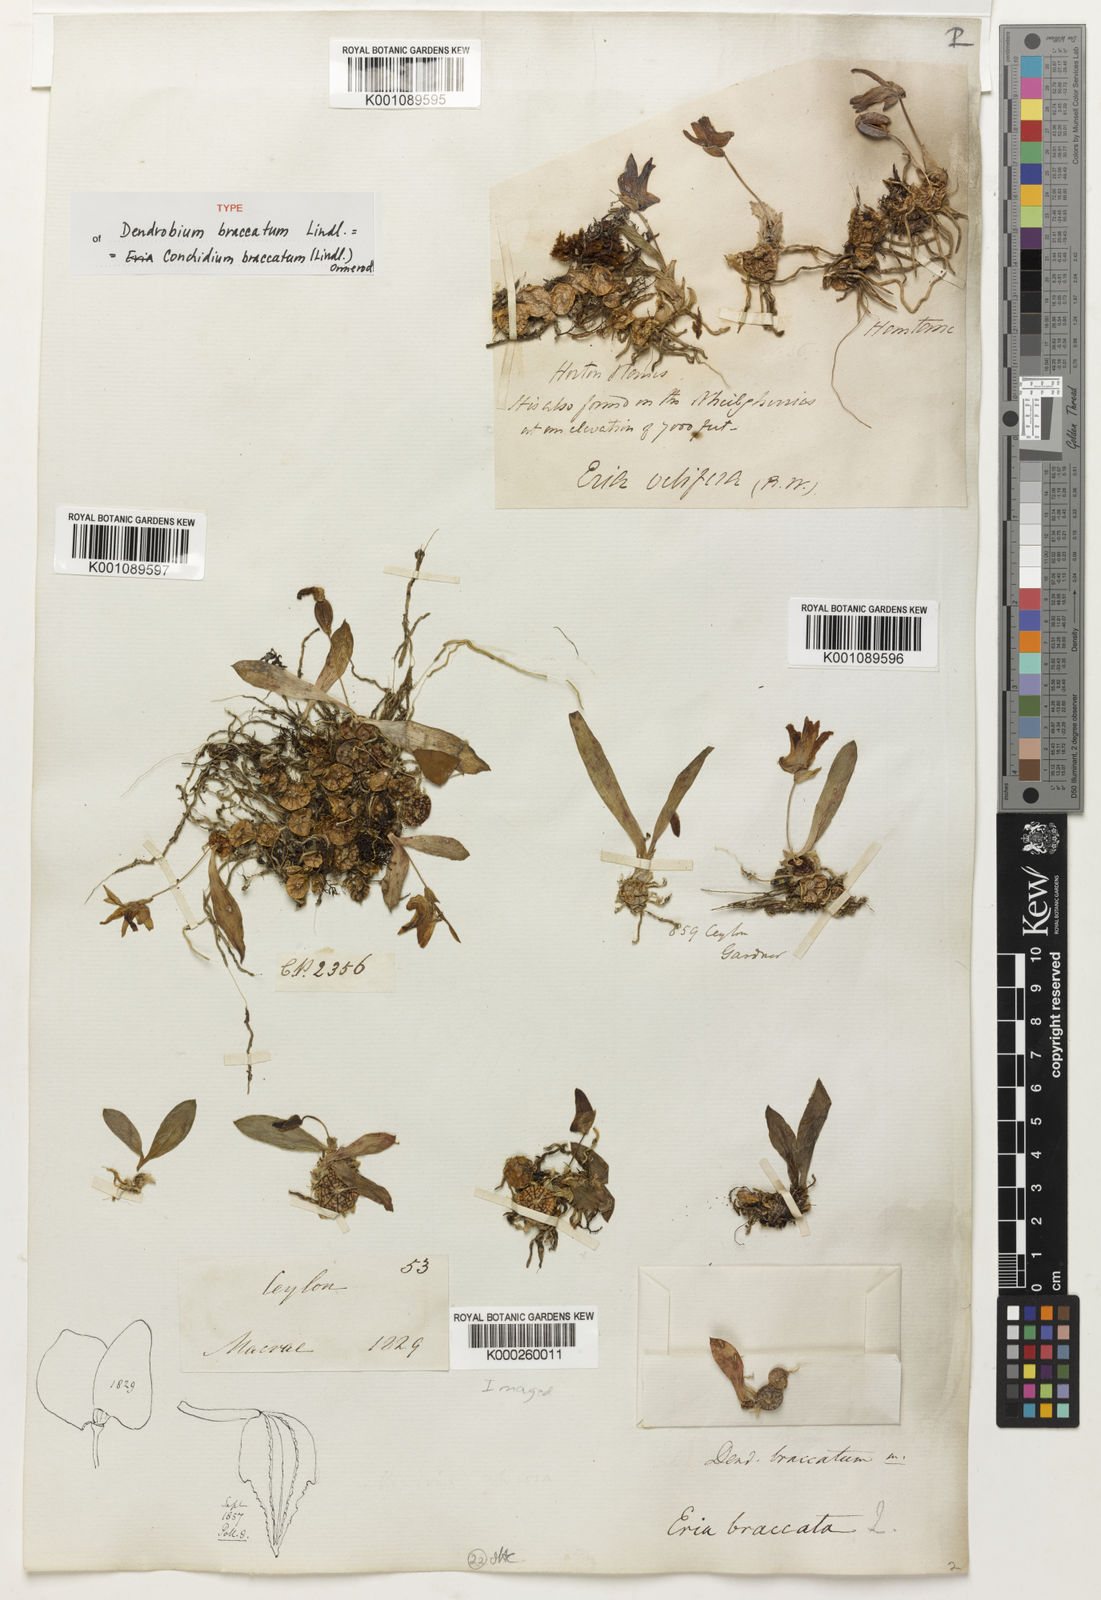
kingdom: Plantae
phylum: Tracheophyta
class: Liliopsida
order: Asparagales
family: Orchidaceae
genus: Porpax
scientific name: Porpax braccata
